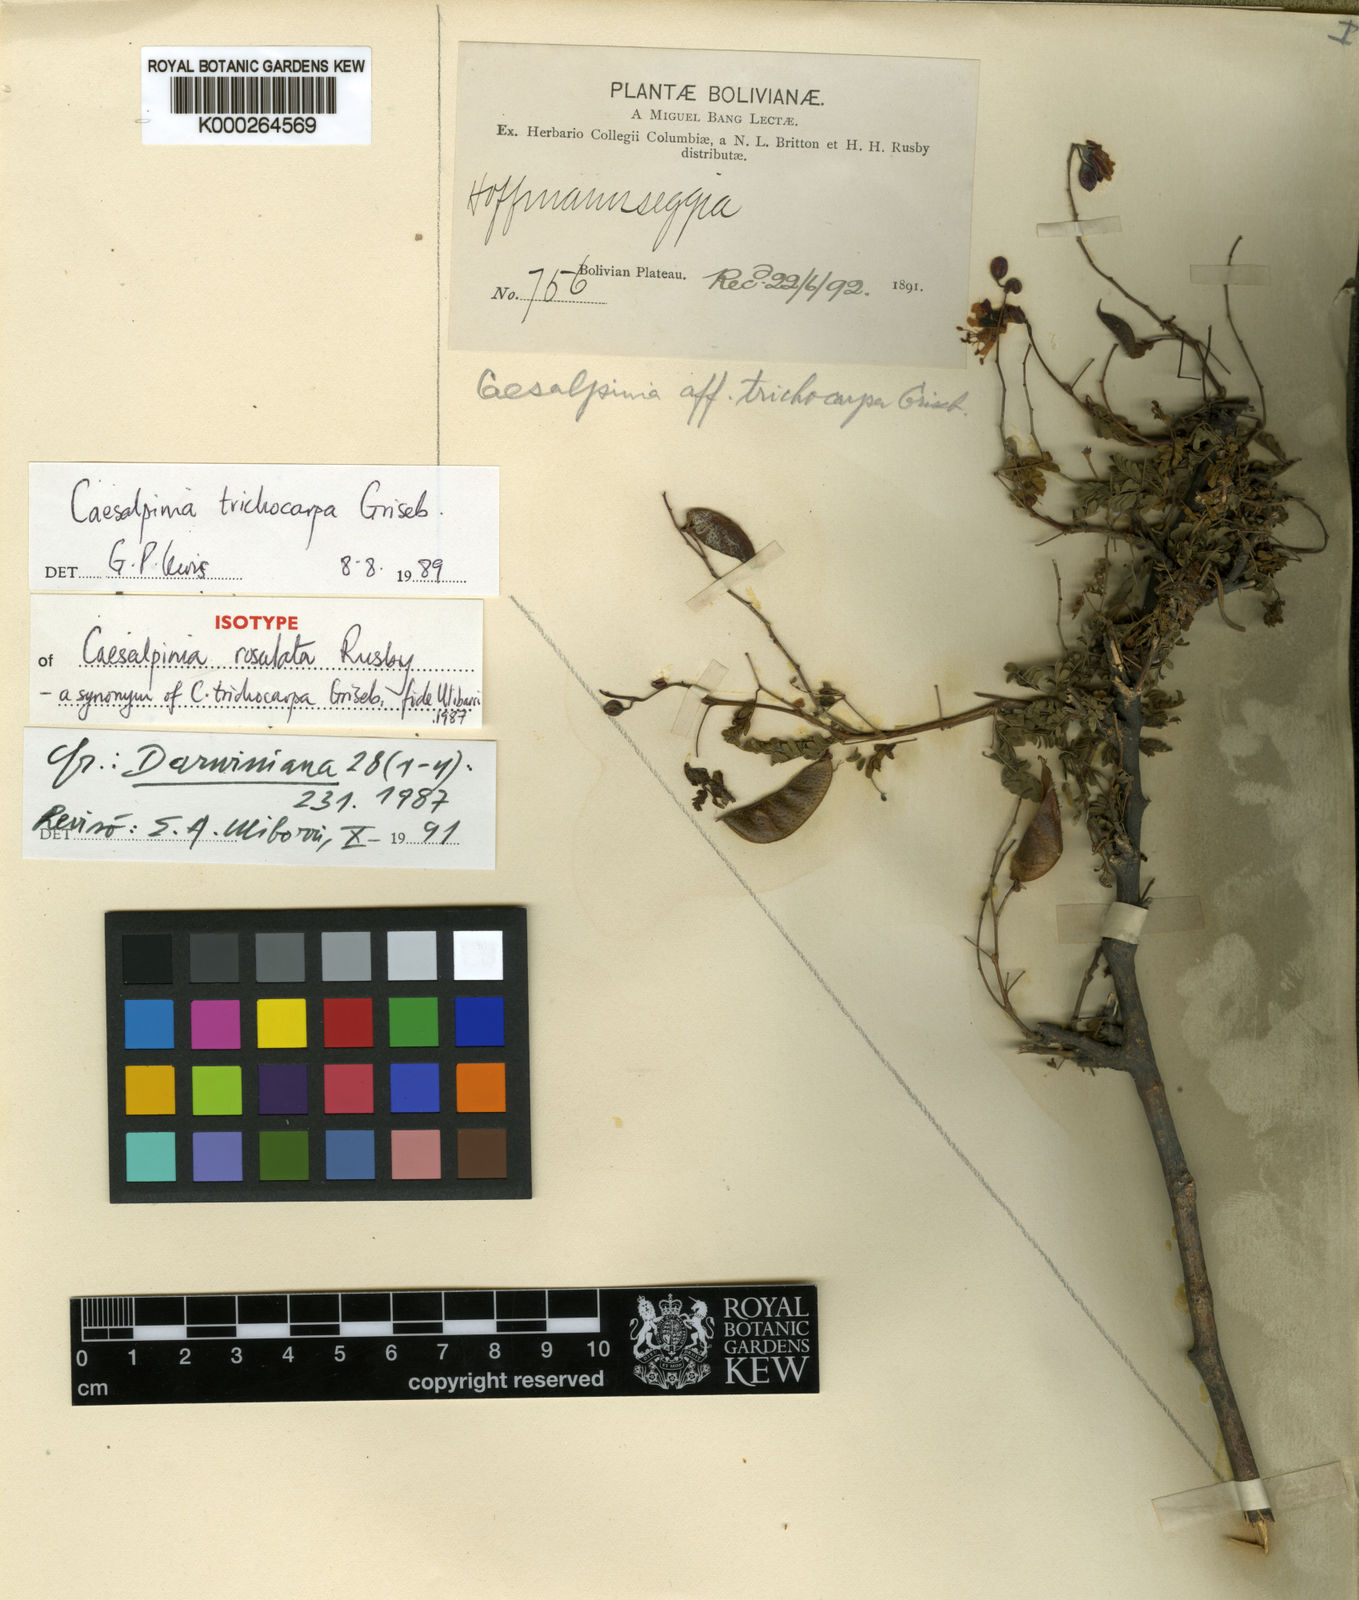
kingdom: Plantae
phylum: Tracheophyta
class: Magnoliopsida
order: Fabales
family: Fabaceae
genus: Arquita
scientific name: Arquita trichocarpa
